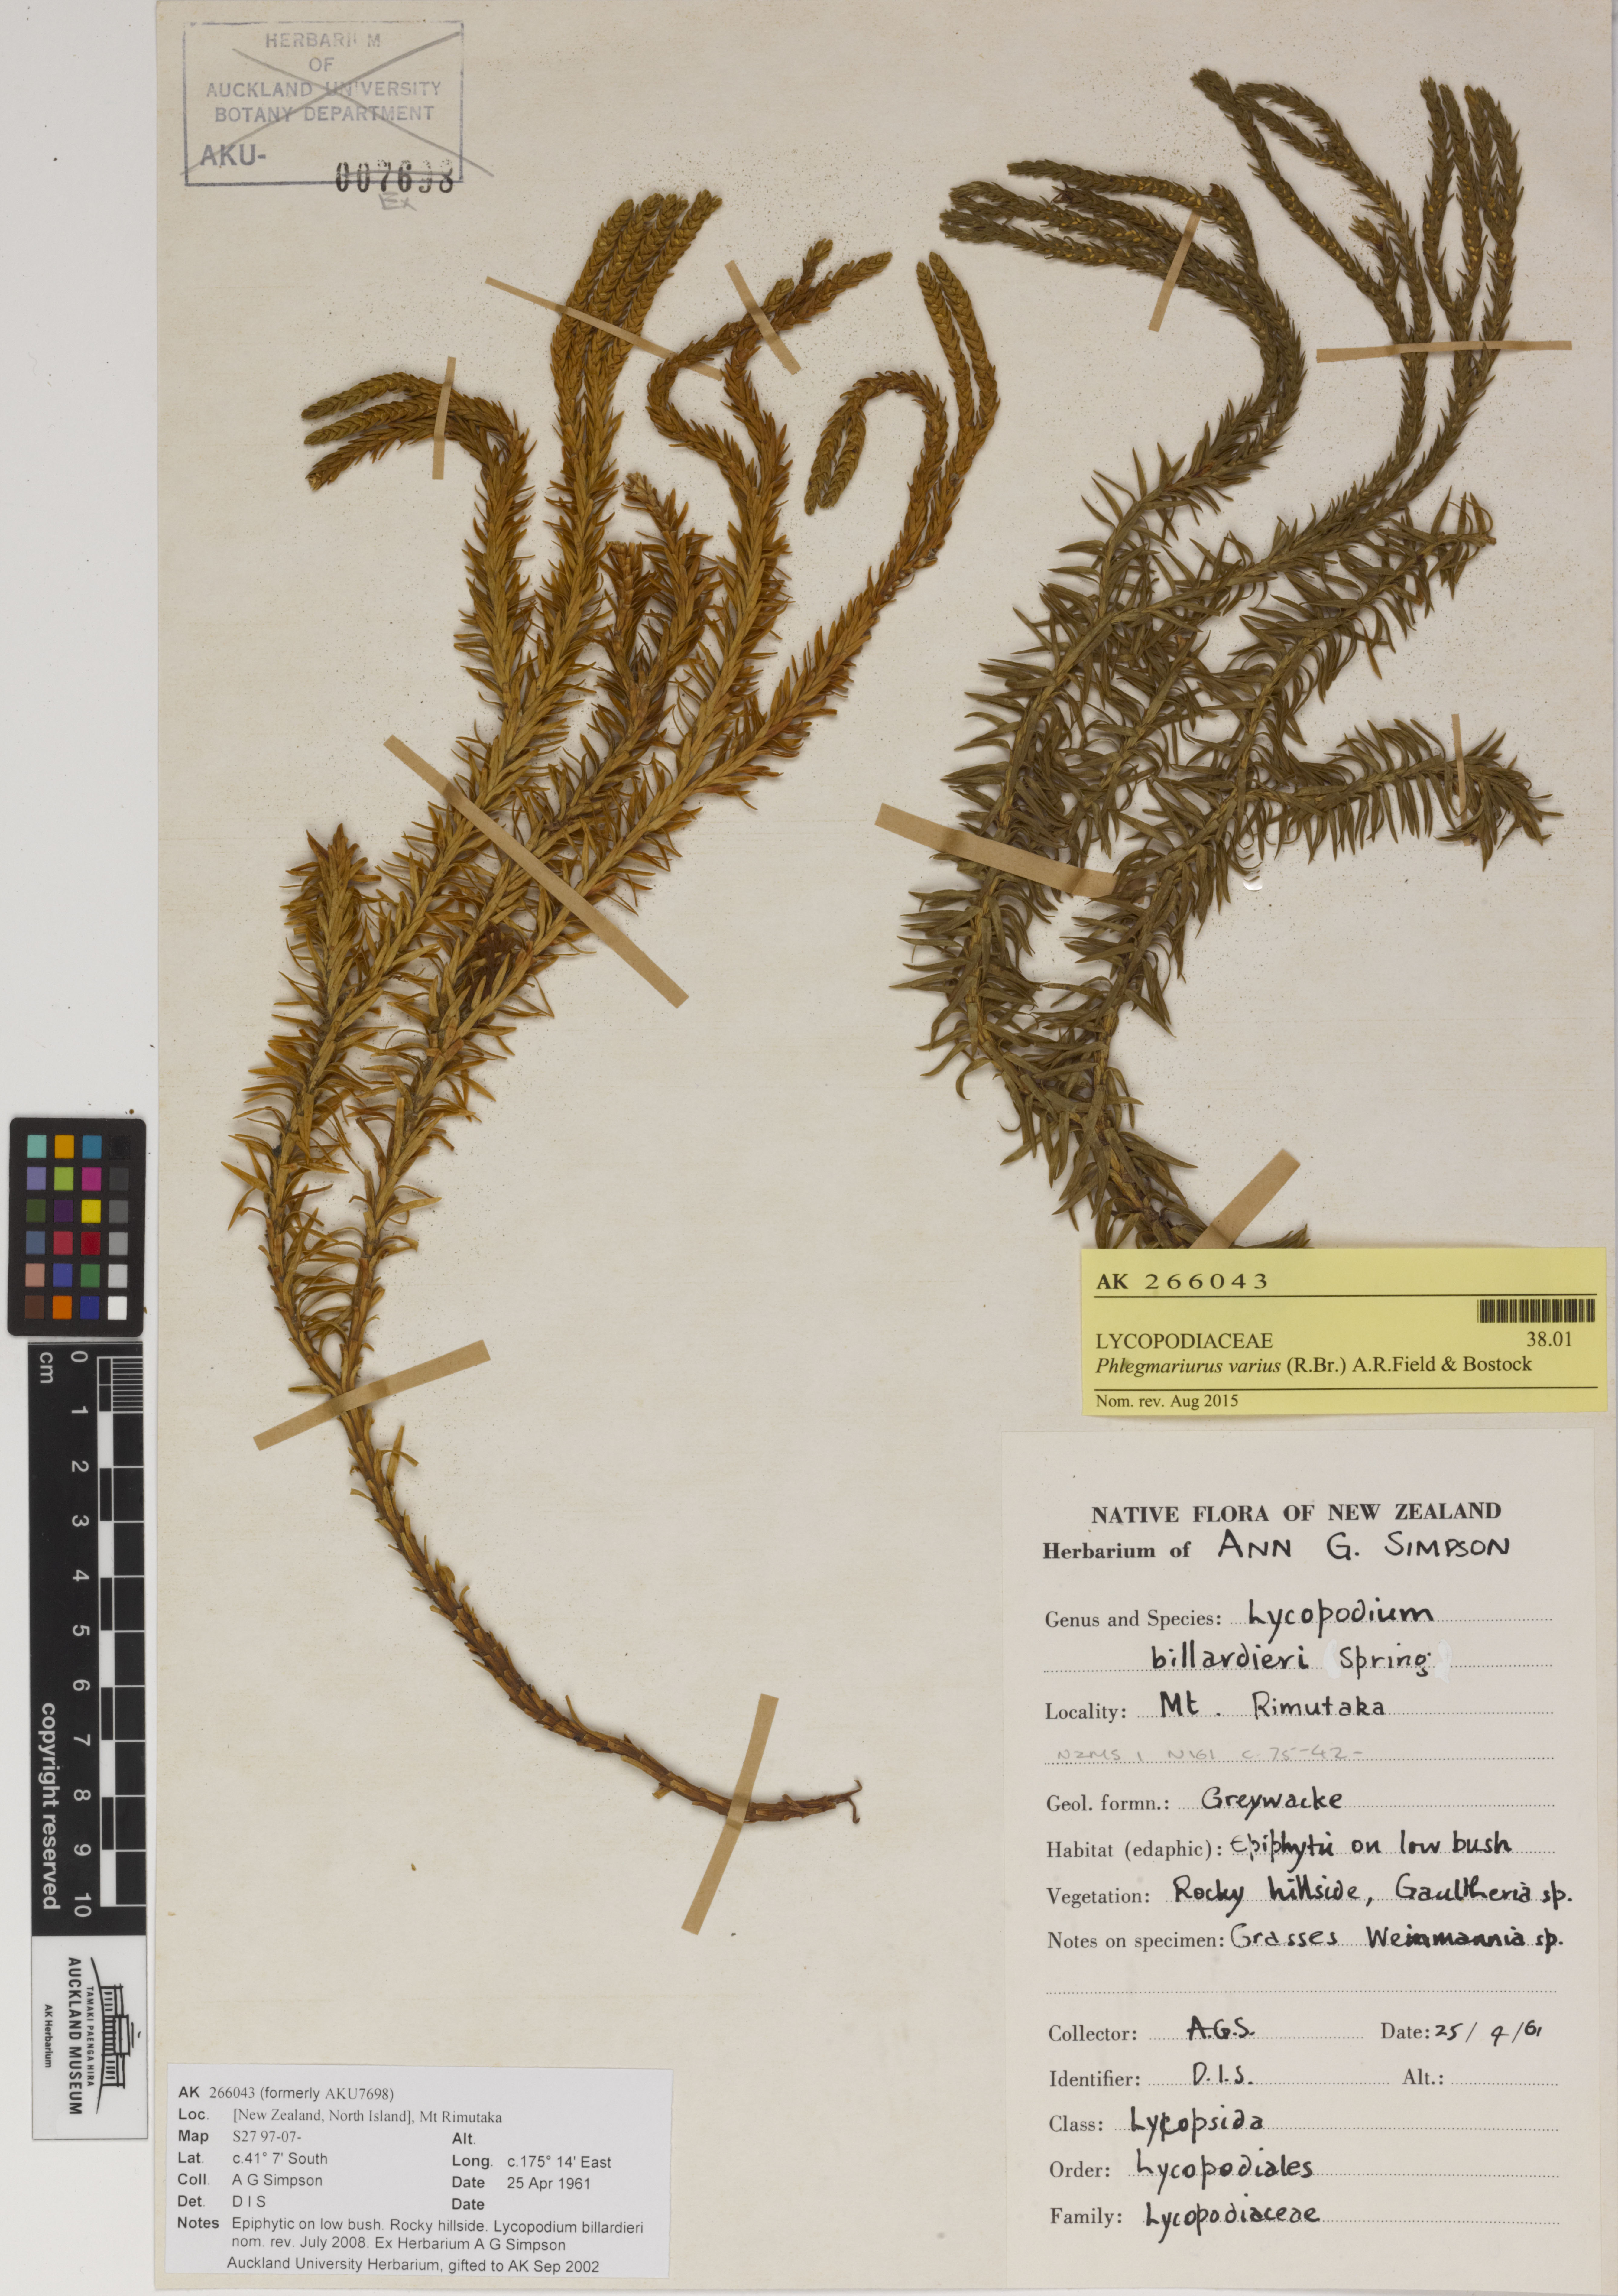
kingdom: Plantae
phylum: Tracheophyta
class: Lycopodiopsida
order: Lycopodiales
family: Lycopodiaceae
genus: Phlegmariurus
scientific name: Phlegmariurus varius
